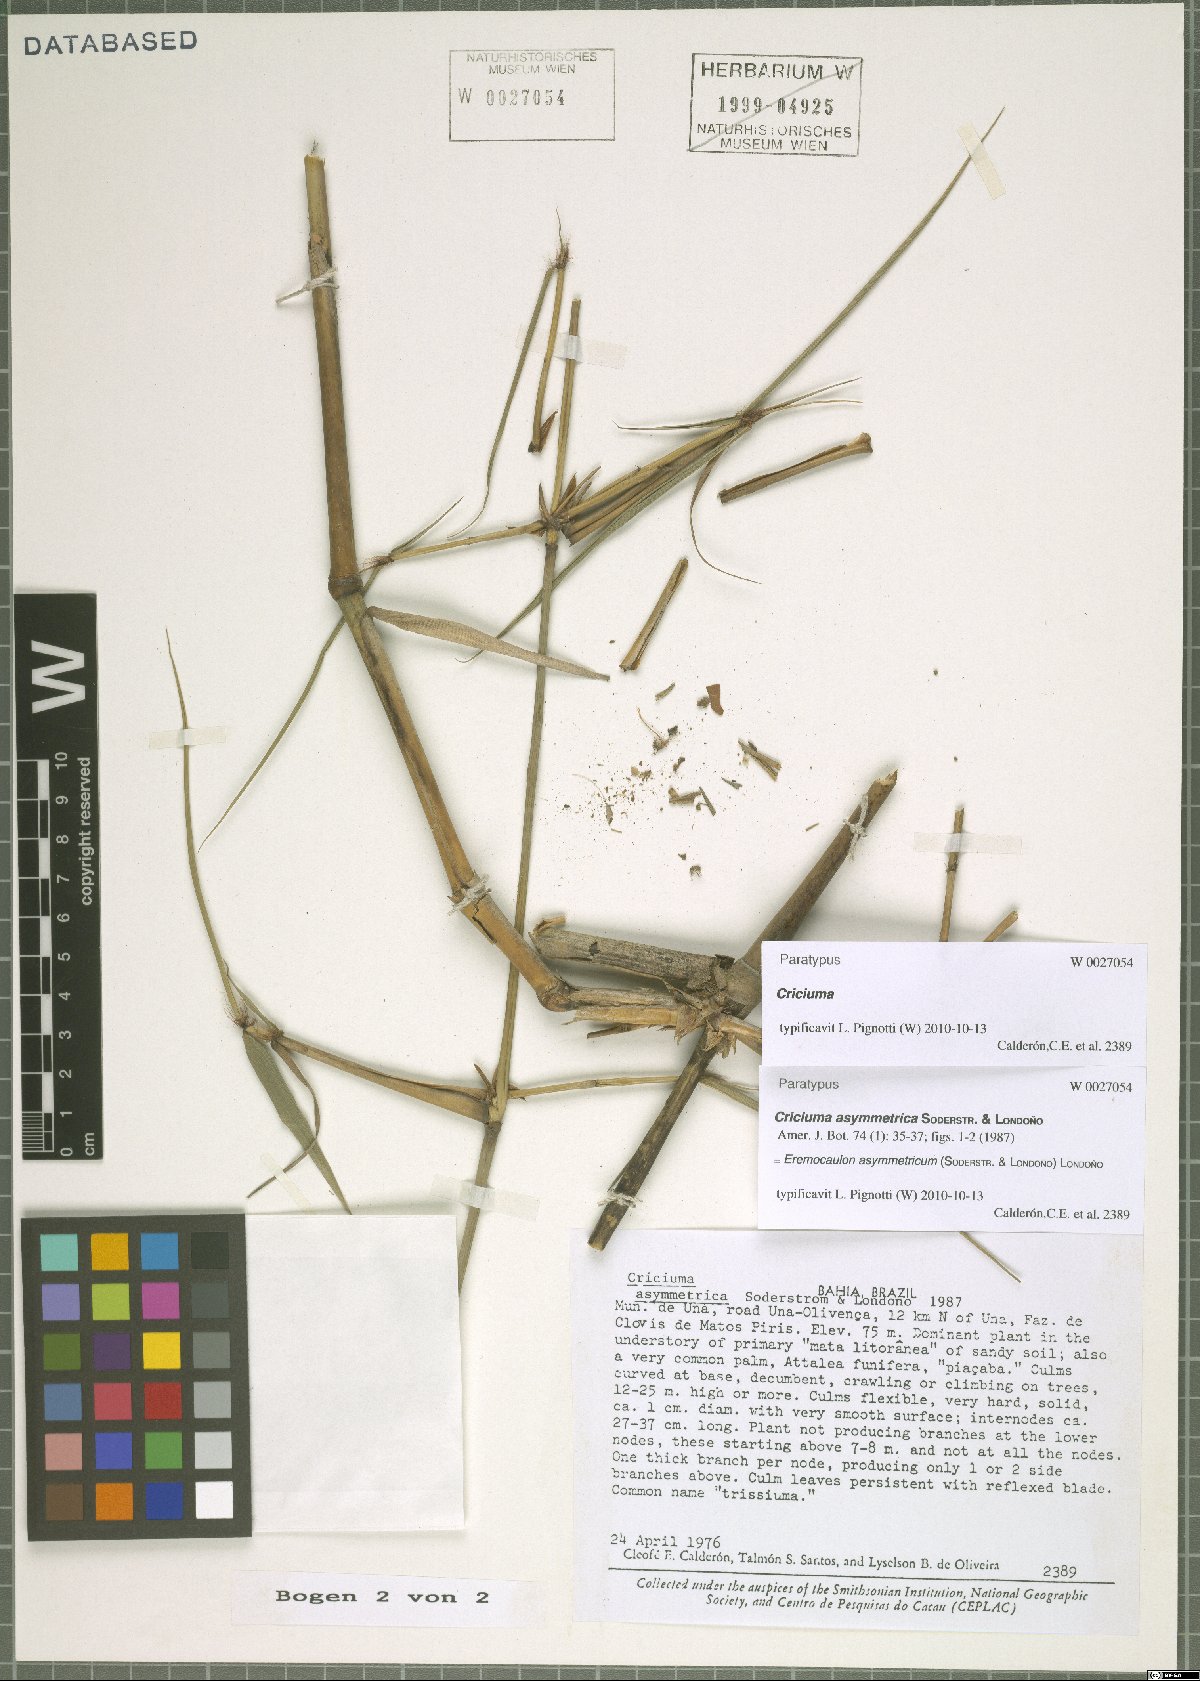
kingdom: Plantae
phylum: Tracheophyta
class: Liliopsida
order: Poales
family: Poaceae
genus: Eremocaulon
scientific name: Eremocaulon asymmetricum
